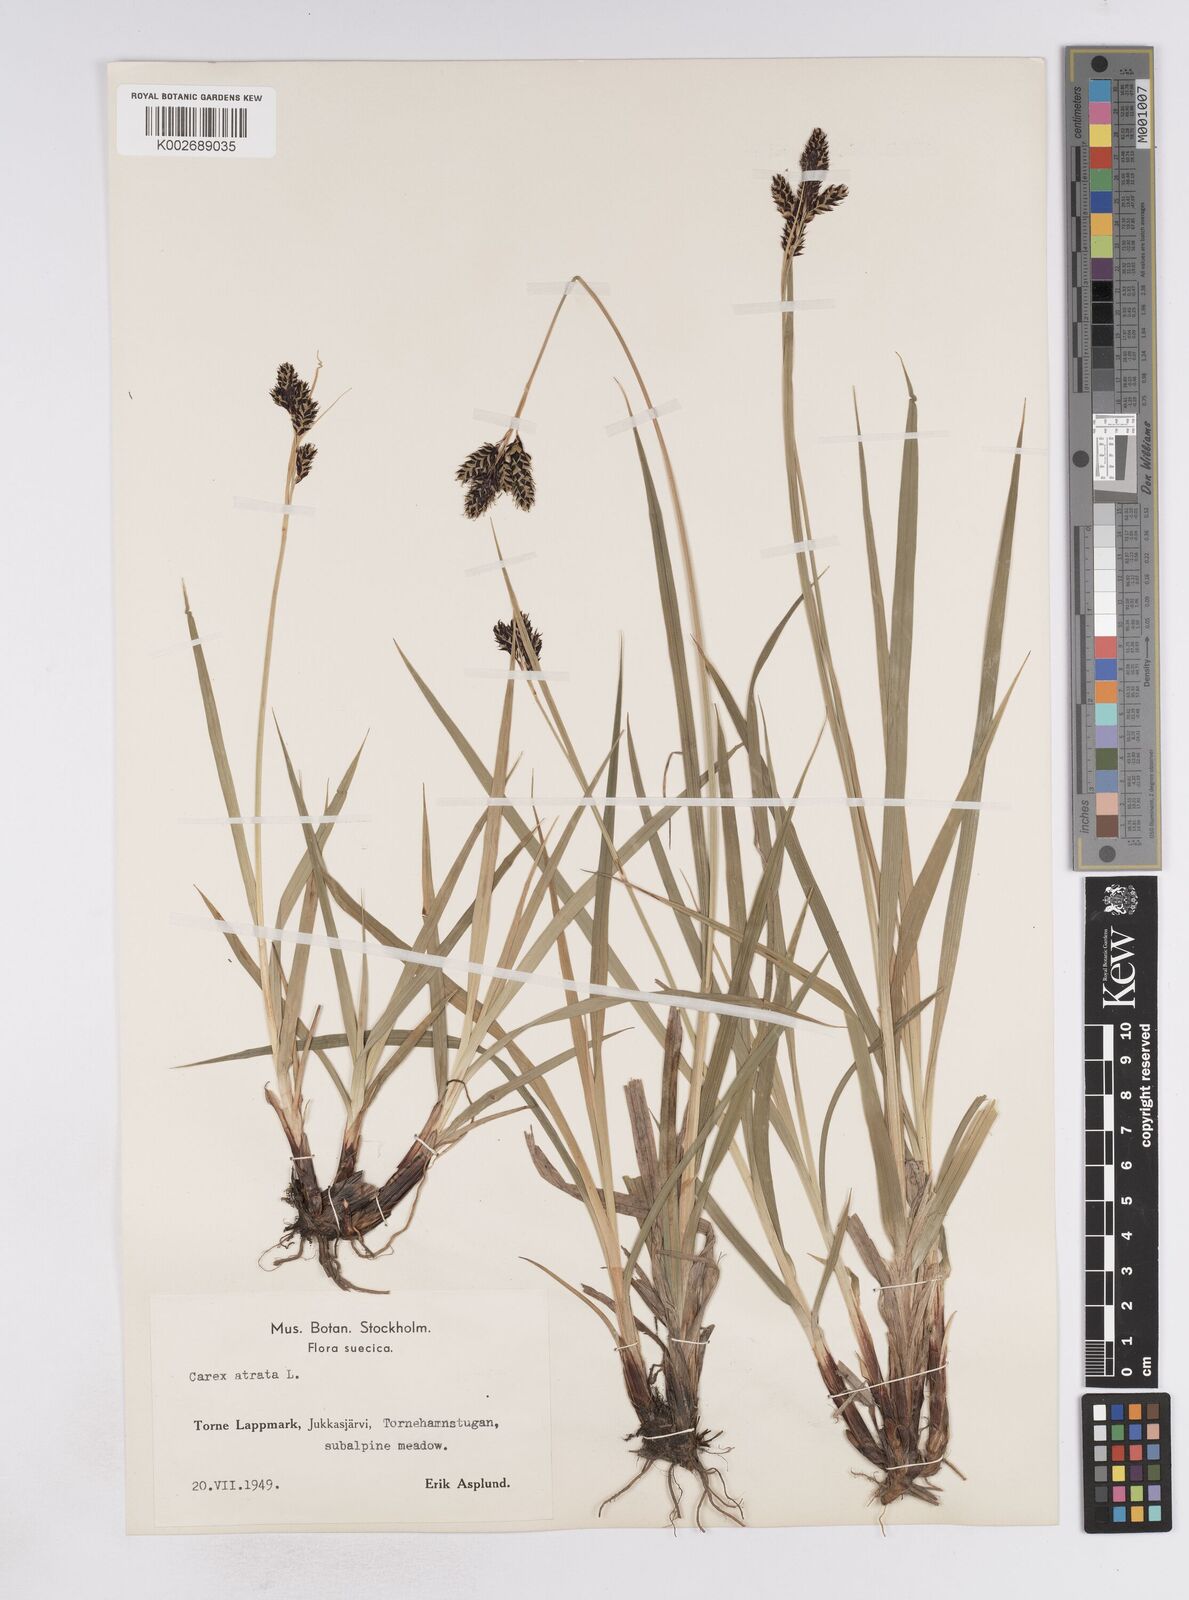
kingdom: Plantae
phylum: Tracheophyta
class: Liliopsida
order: Poales
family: Cyperaceae
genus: Carex
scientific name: Carex atrata
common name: Black alpine sedge
